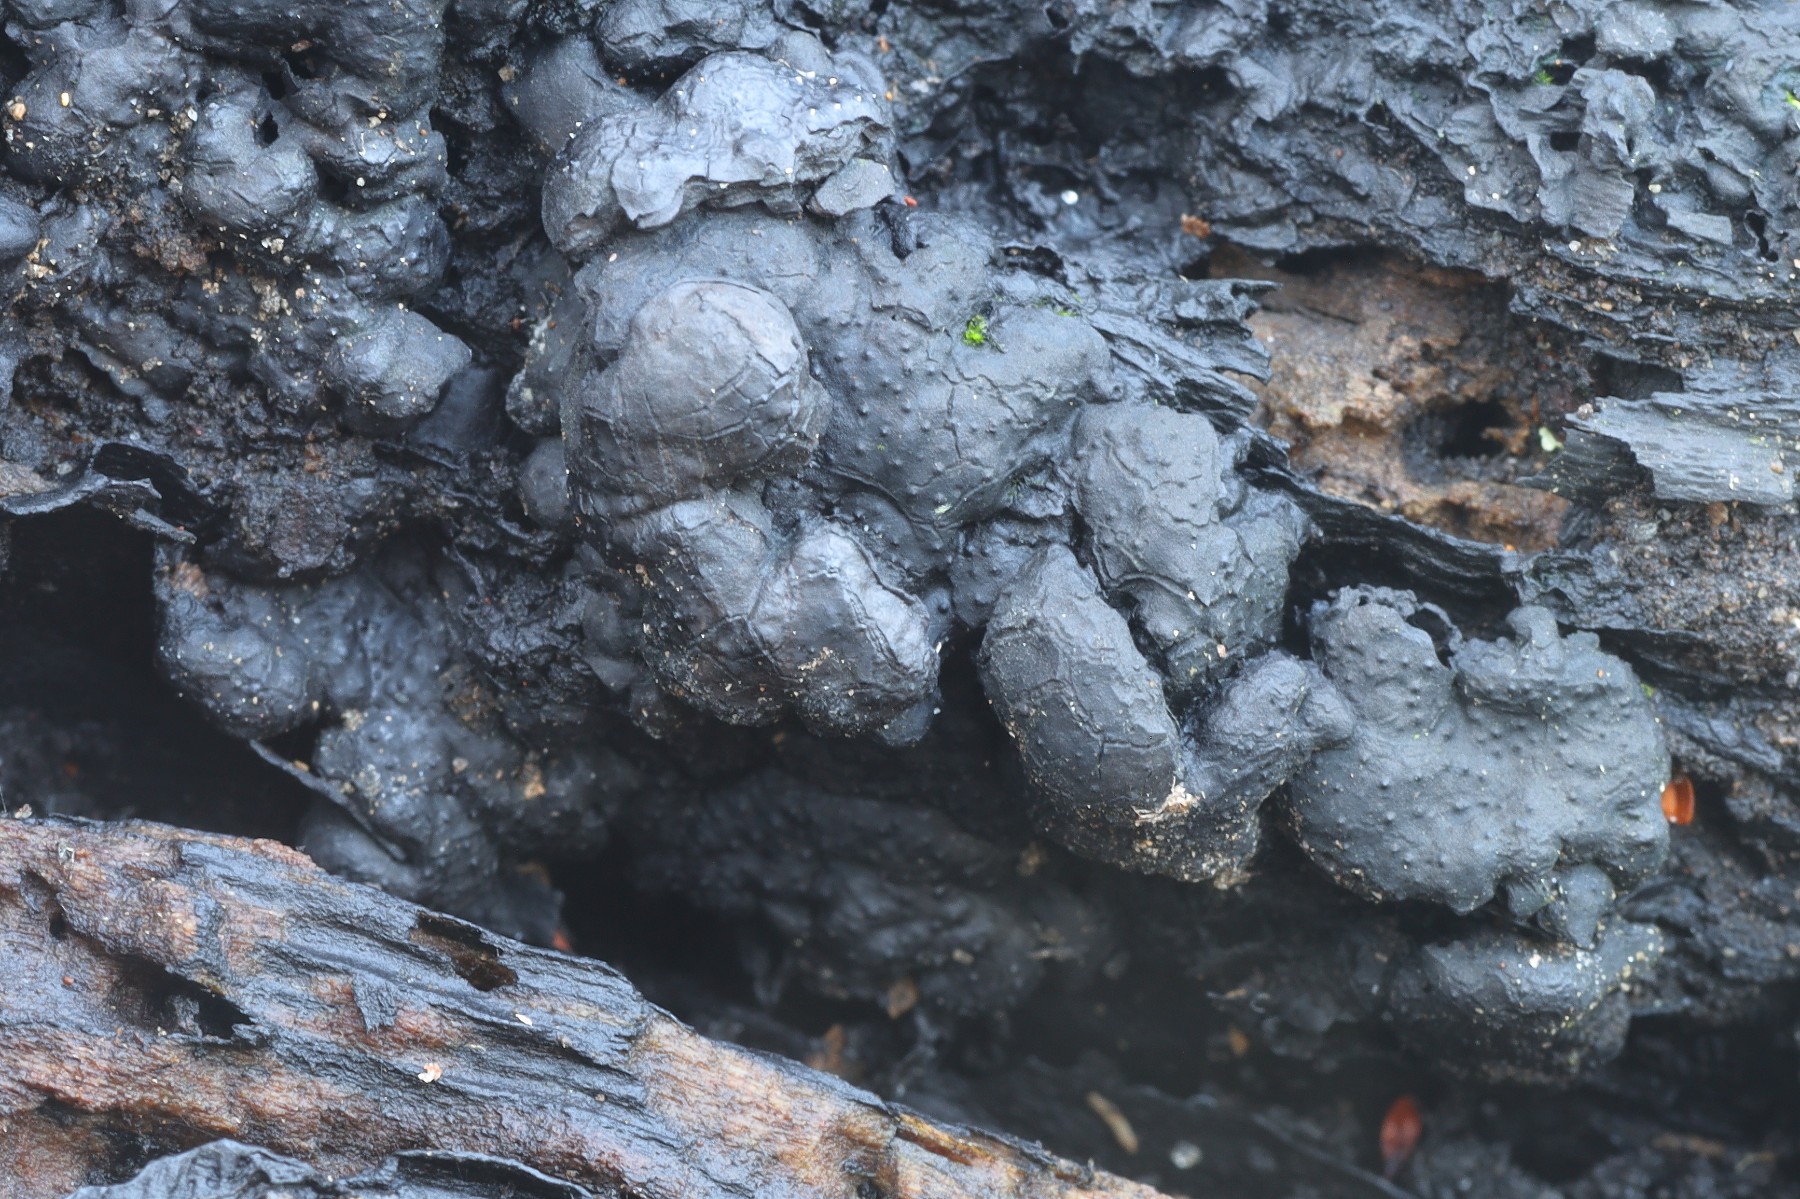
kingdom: Fungi
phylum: Ascomycota
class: Sordariomycetes
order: Xylariales
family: Xylariaceae
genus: Kretzschmaria
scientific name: Kretzschmaria deusta
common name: stor kulsvamp
